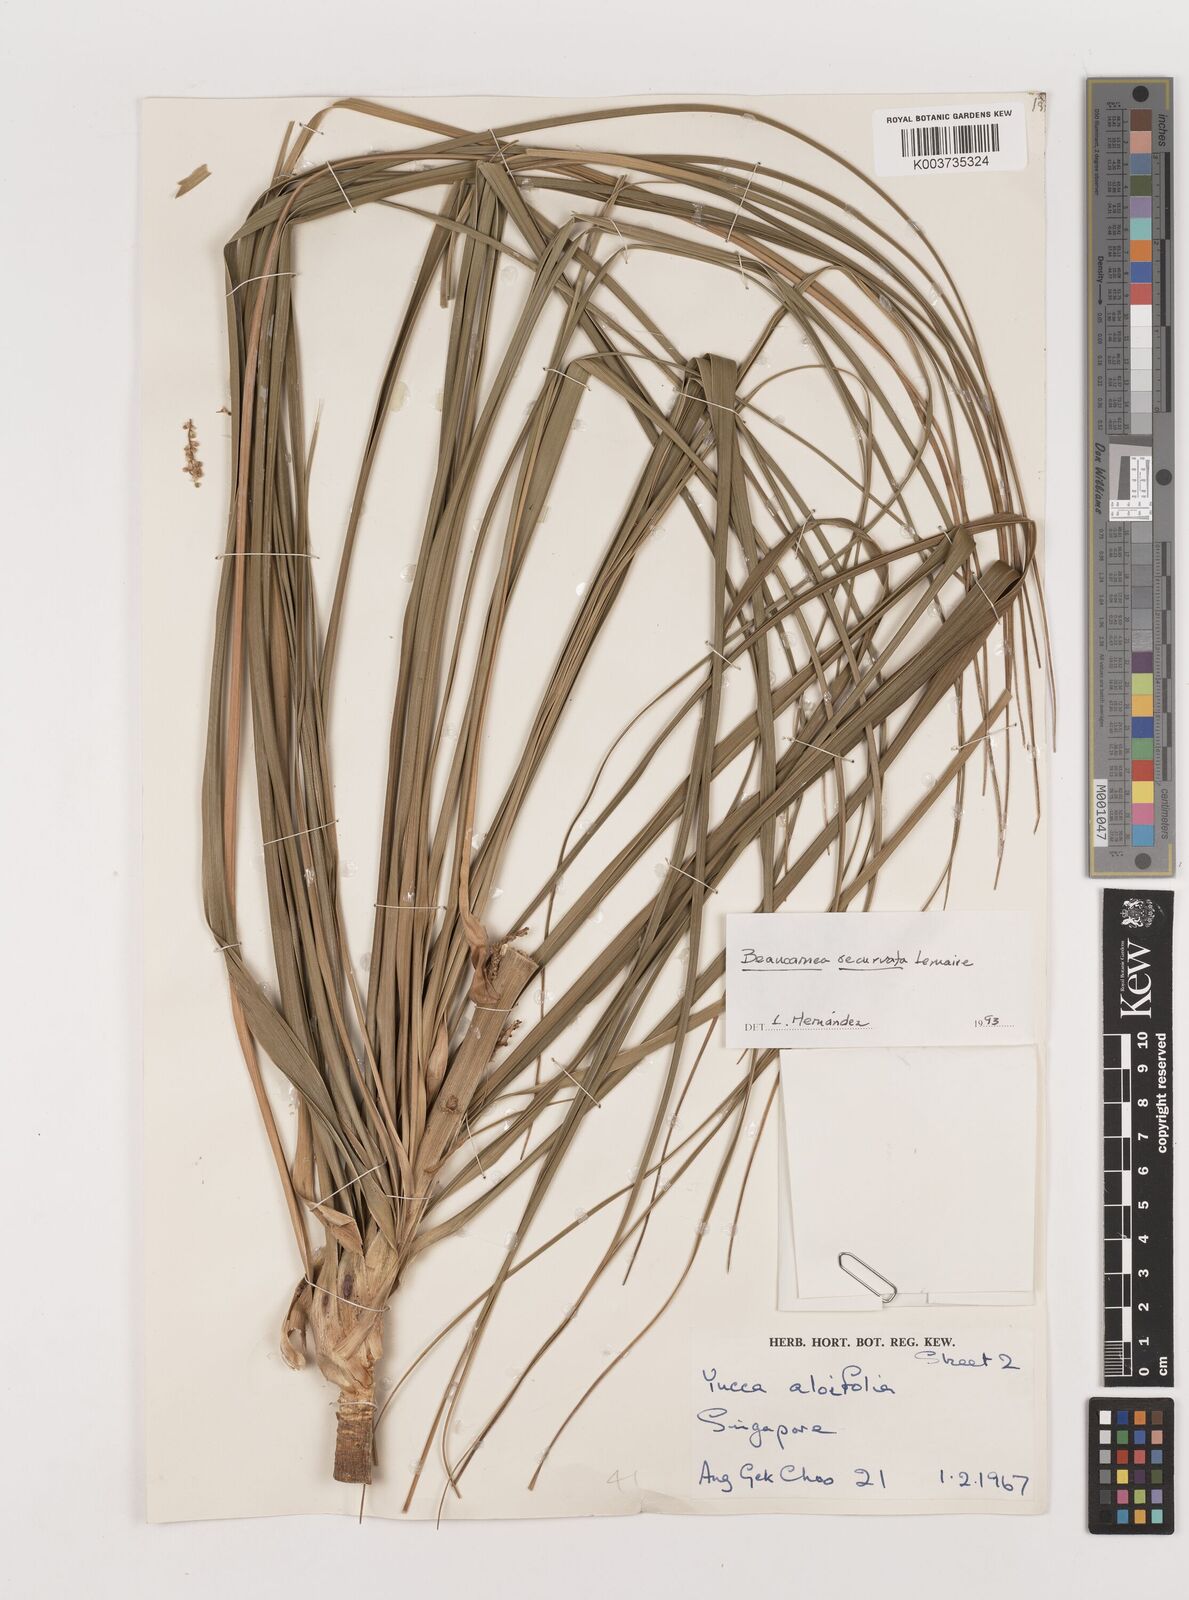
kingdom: Plantae
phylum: Tracheophyta
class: Liliopsida
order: Asparagales
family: Asparagaceae
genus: Beaucarnea
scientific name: Beaucarnea recurvata
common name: Stripy  ponytail
